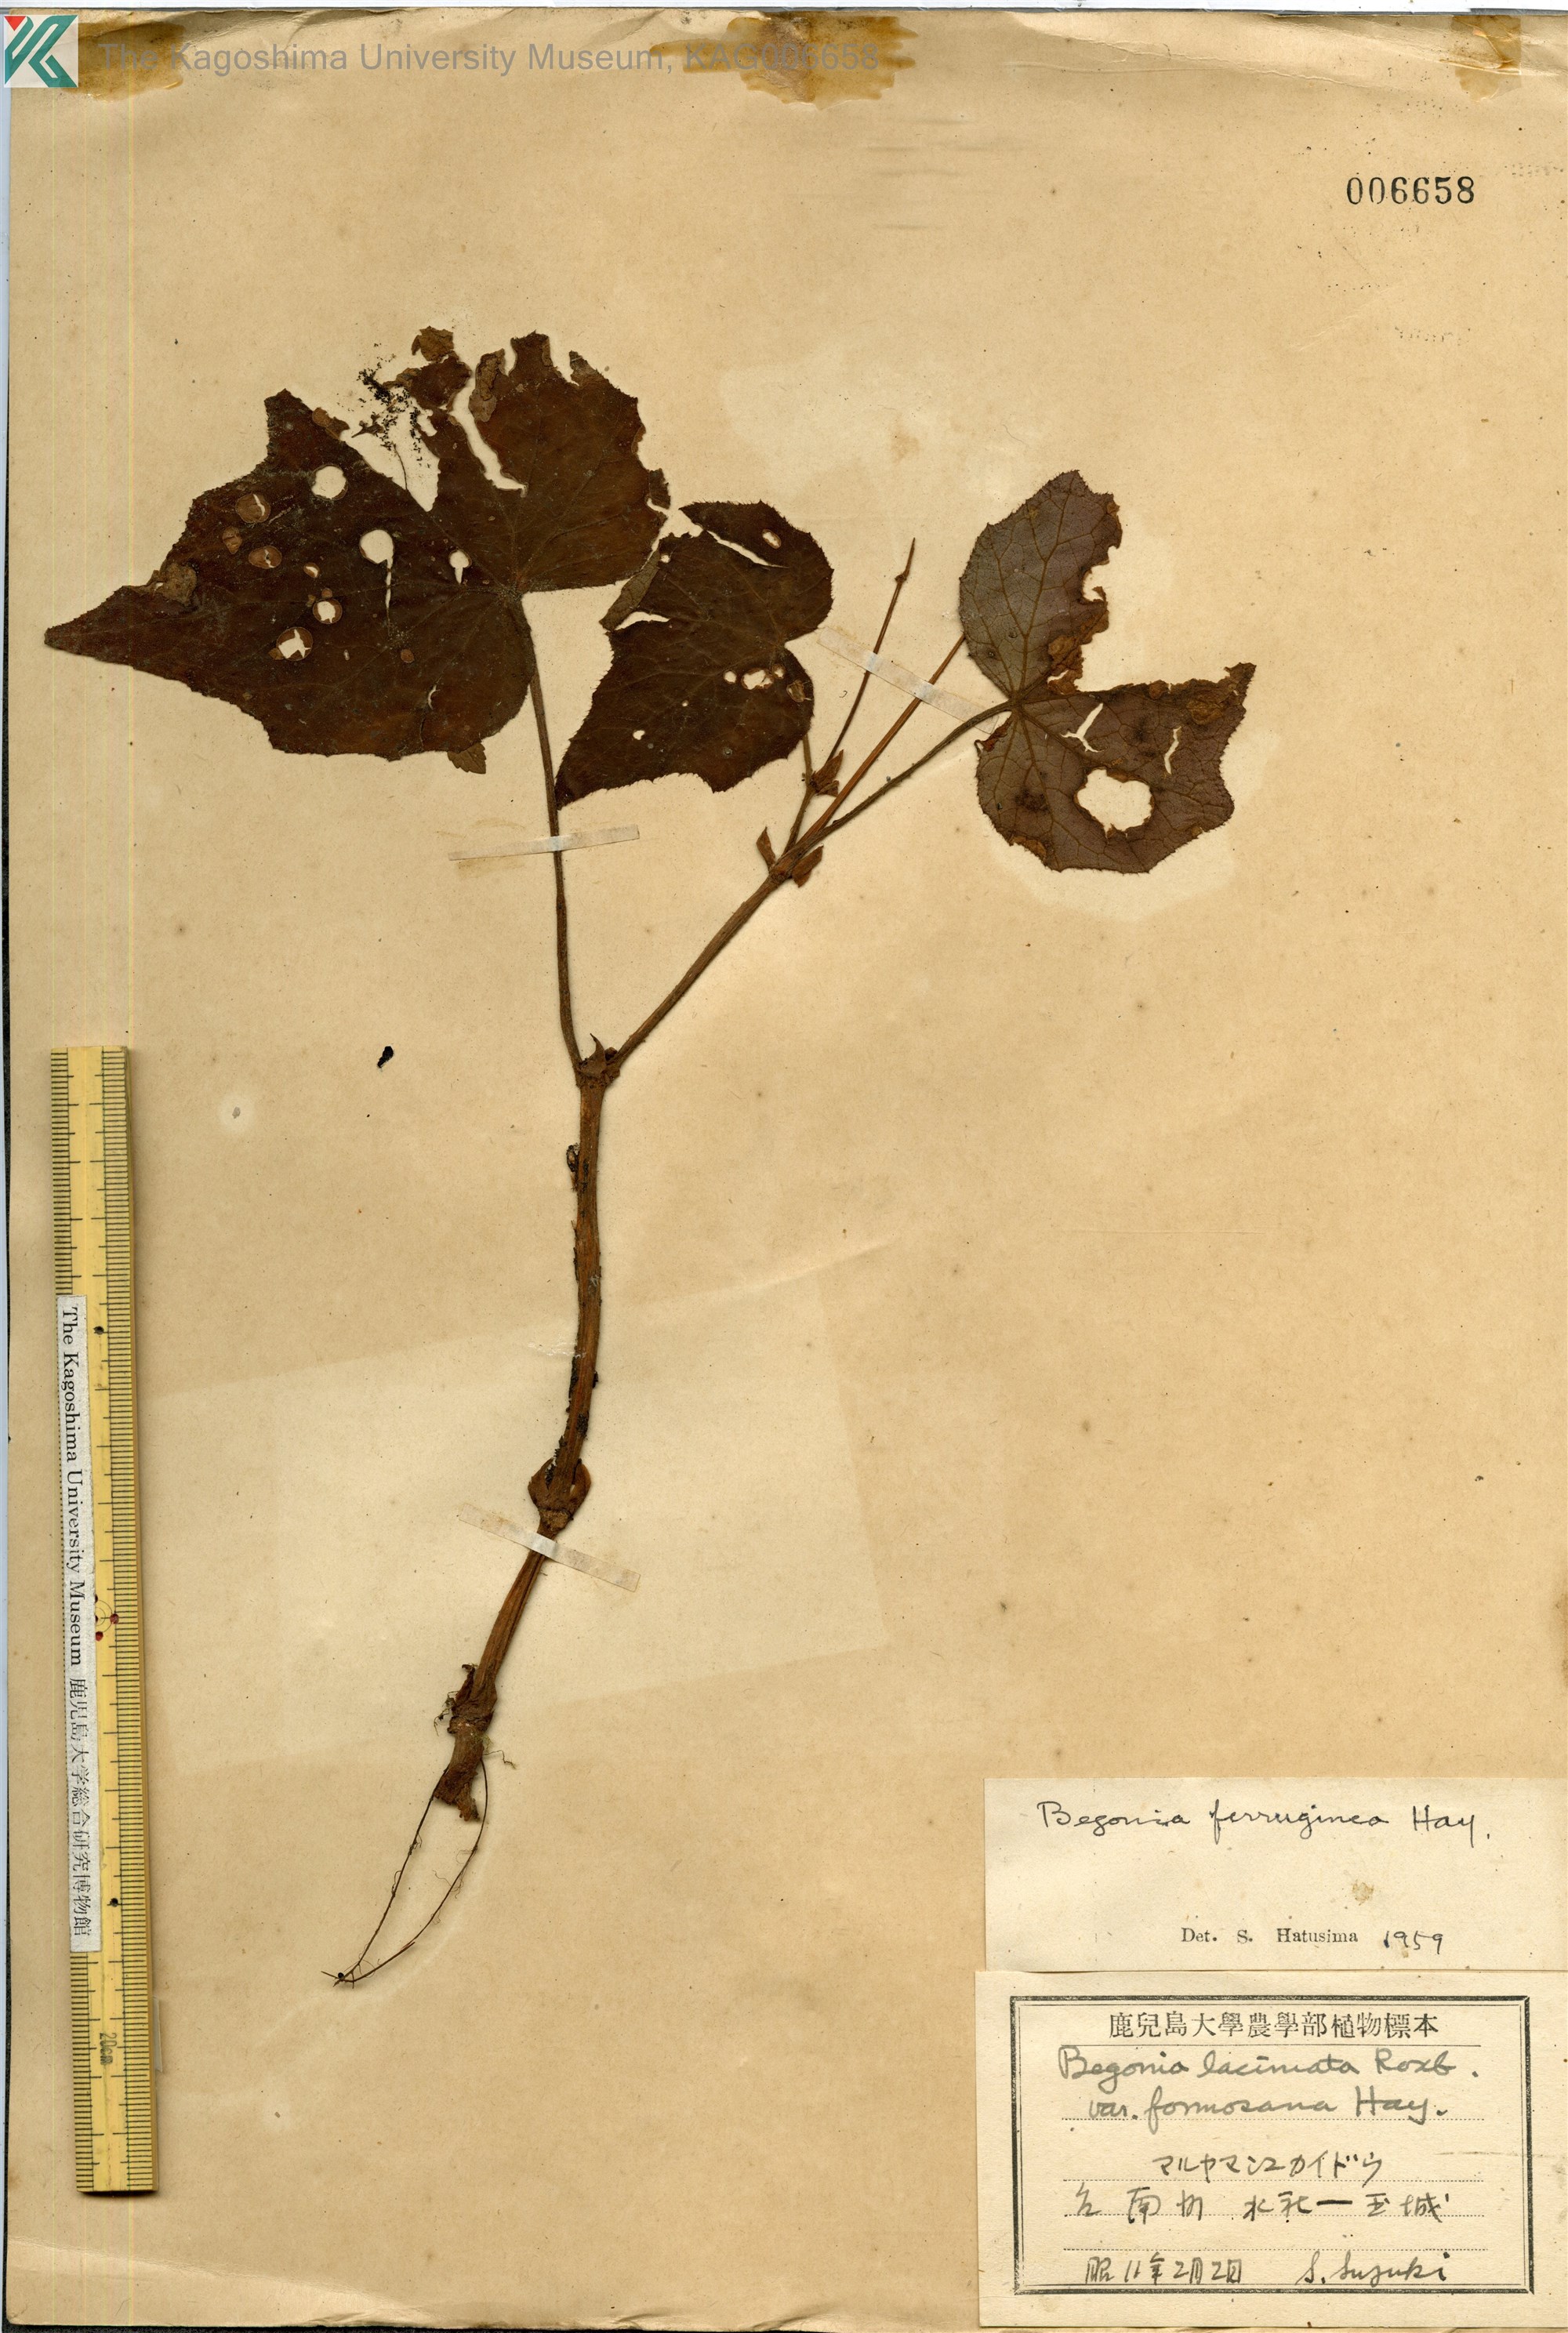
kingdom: Plantae
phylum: Tracheophyta
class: Magnoliopsida
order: Cucurbitales
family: Begoniaceae
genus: Begonia
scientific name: Begonia ferruginea
